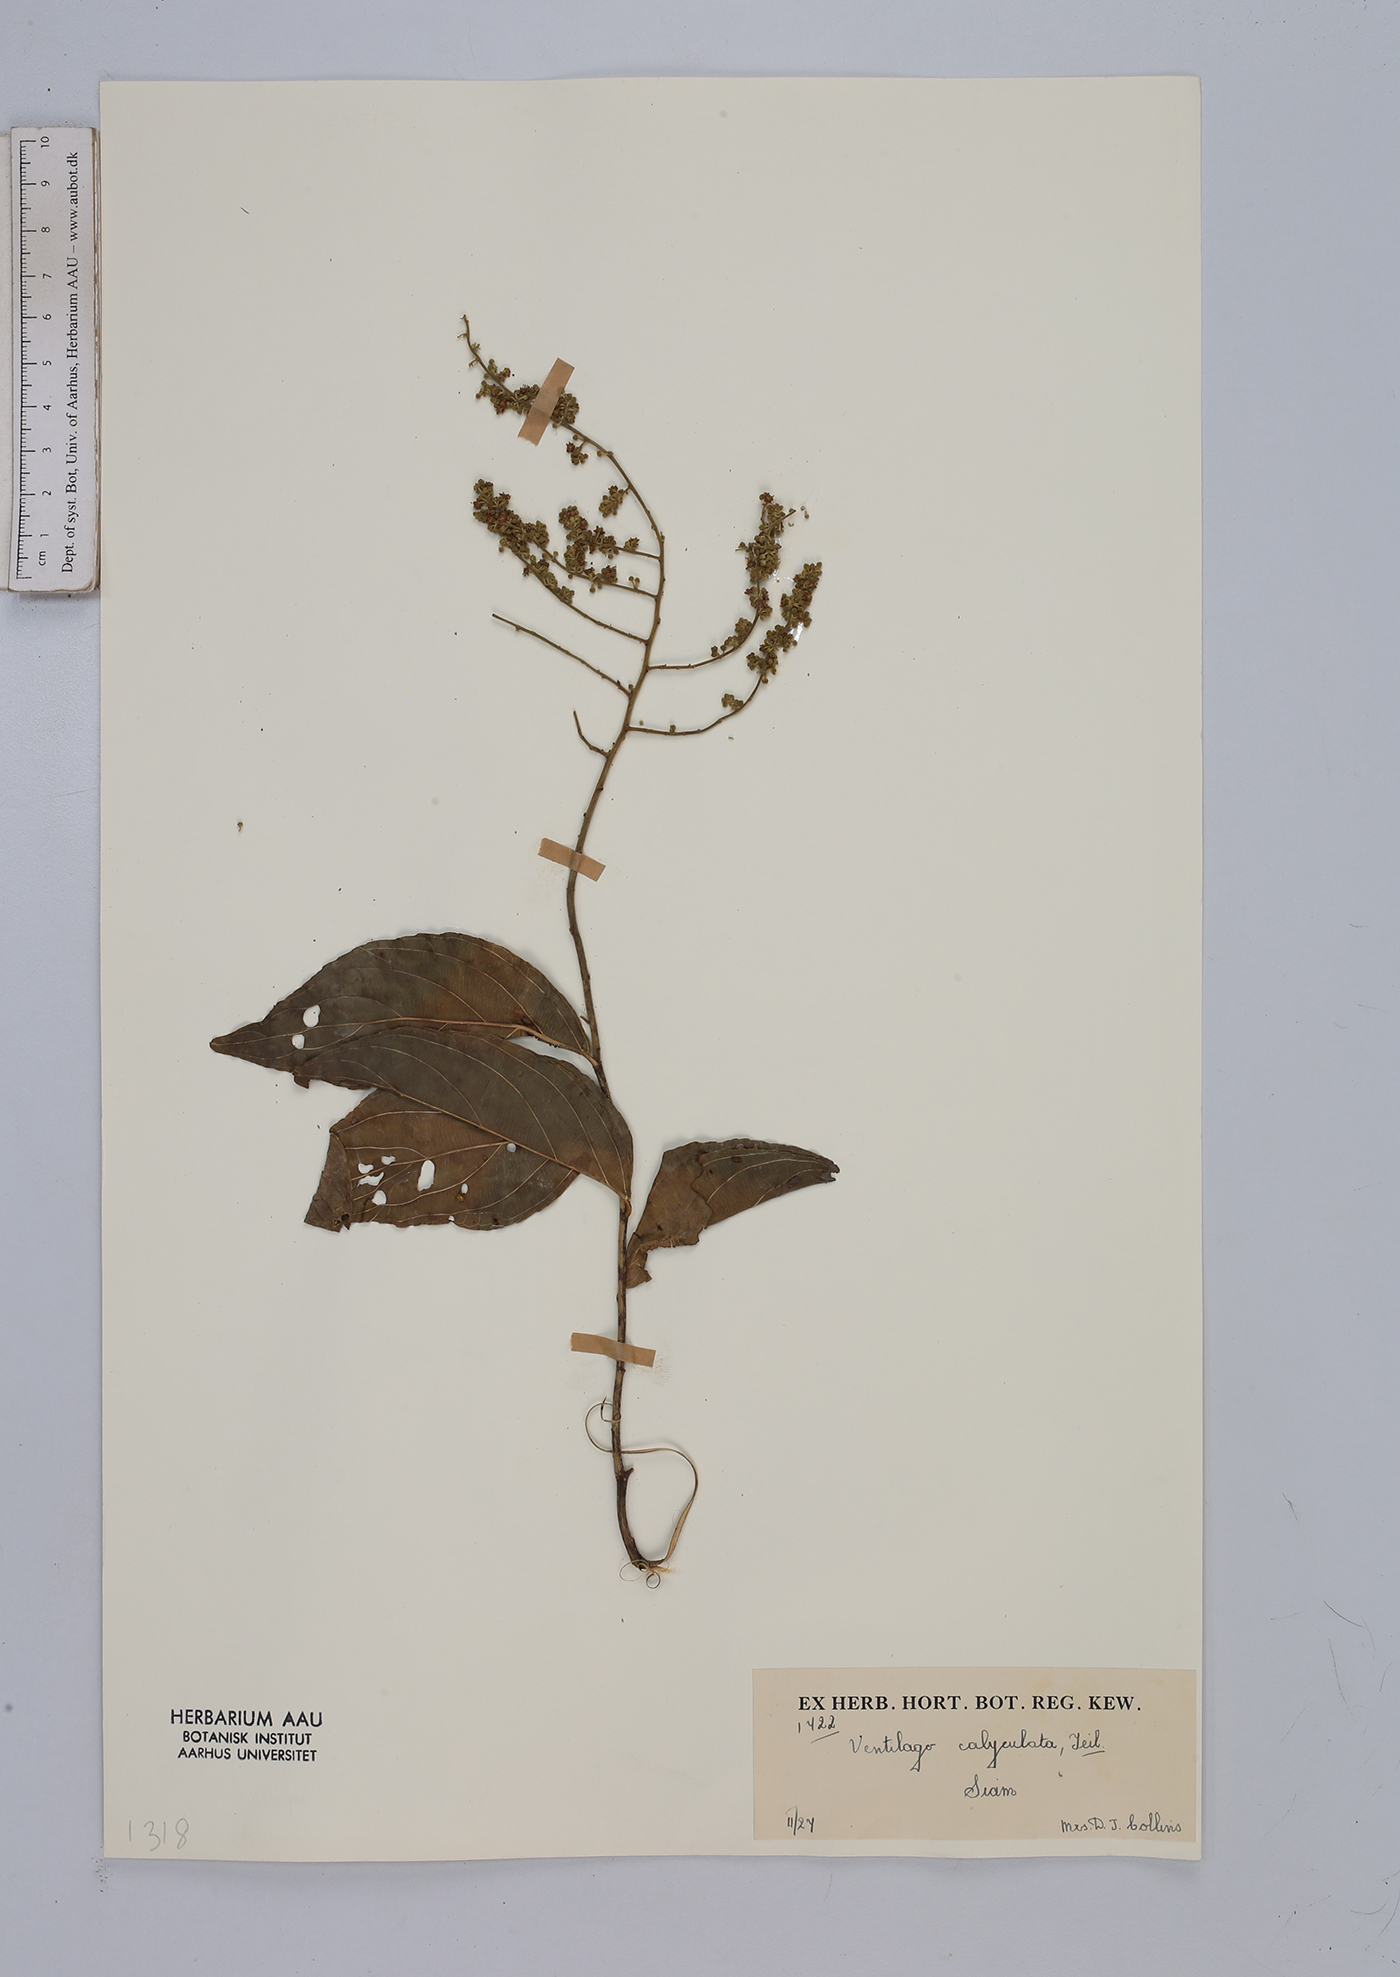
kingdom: Plantae
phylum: Tracheophyta
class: Magnoliopsida
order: Rosales
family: Rhamnaceae
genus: Ventilago
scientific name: Ventilago denticulata
